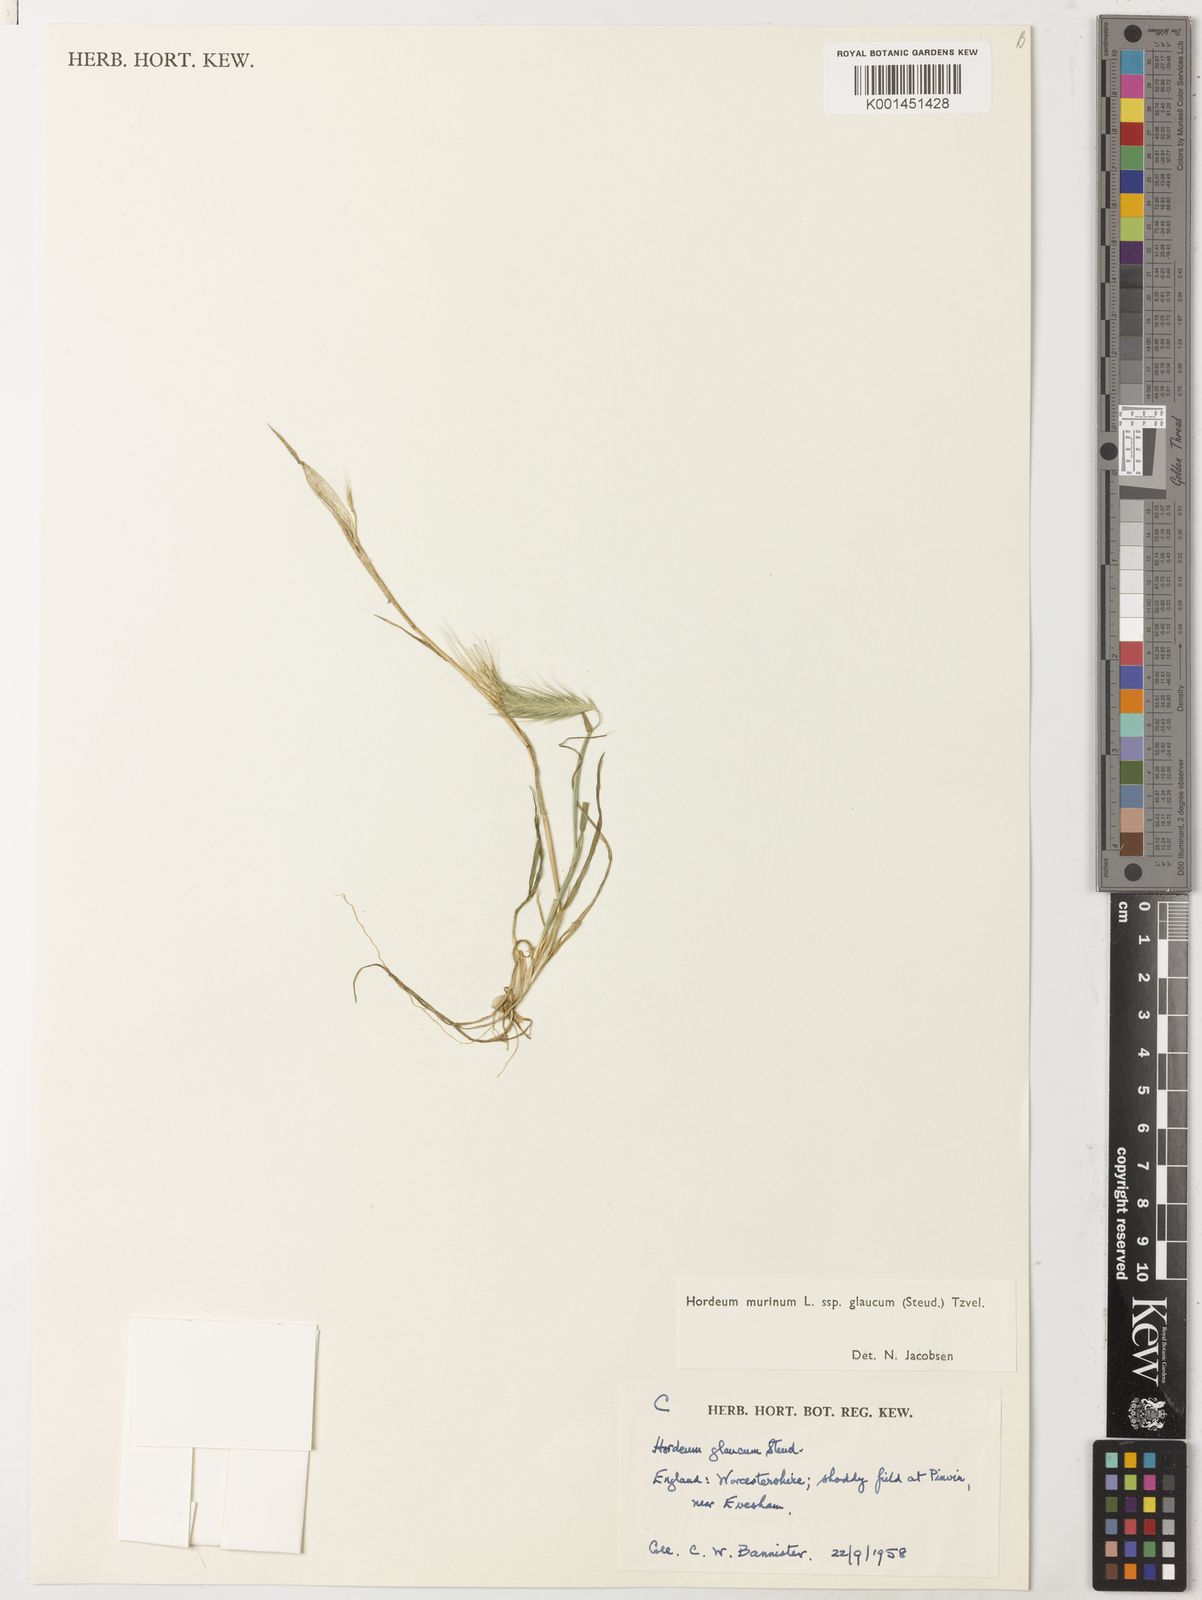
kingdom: Plantae
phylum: Tracheophyta
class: Liliopsida
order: Poales
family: Poaceae
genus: Hordeum
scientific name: Hordeum murinum
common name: Wall barley
